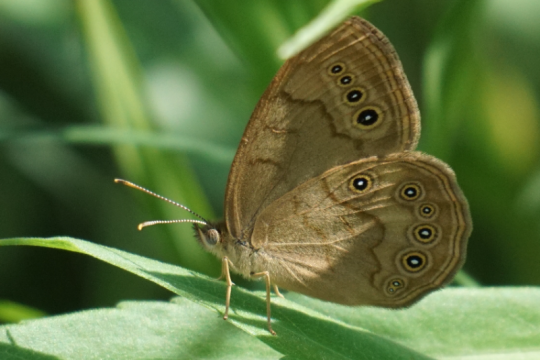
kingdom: Animalia
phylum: Arthropoda
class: Insecta
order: Lepidoptera
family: Nymphalidae
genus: Lethe
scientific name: Lethe eurydice
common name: Eyed Brown
